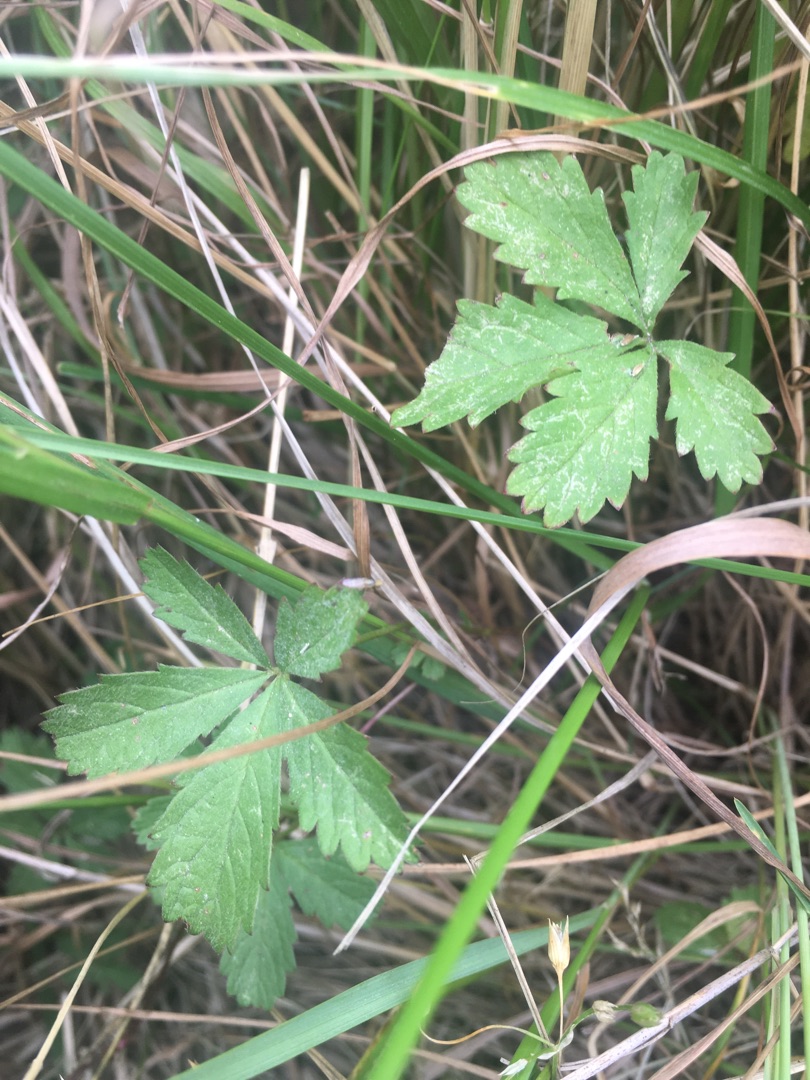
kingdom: Plantae
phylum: Tracheophyta
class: Magnoliopsida
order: Rosales
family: Rosaceae
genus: Potentilla
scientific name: Potentilla reptans
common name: Krybende potentil
